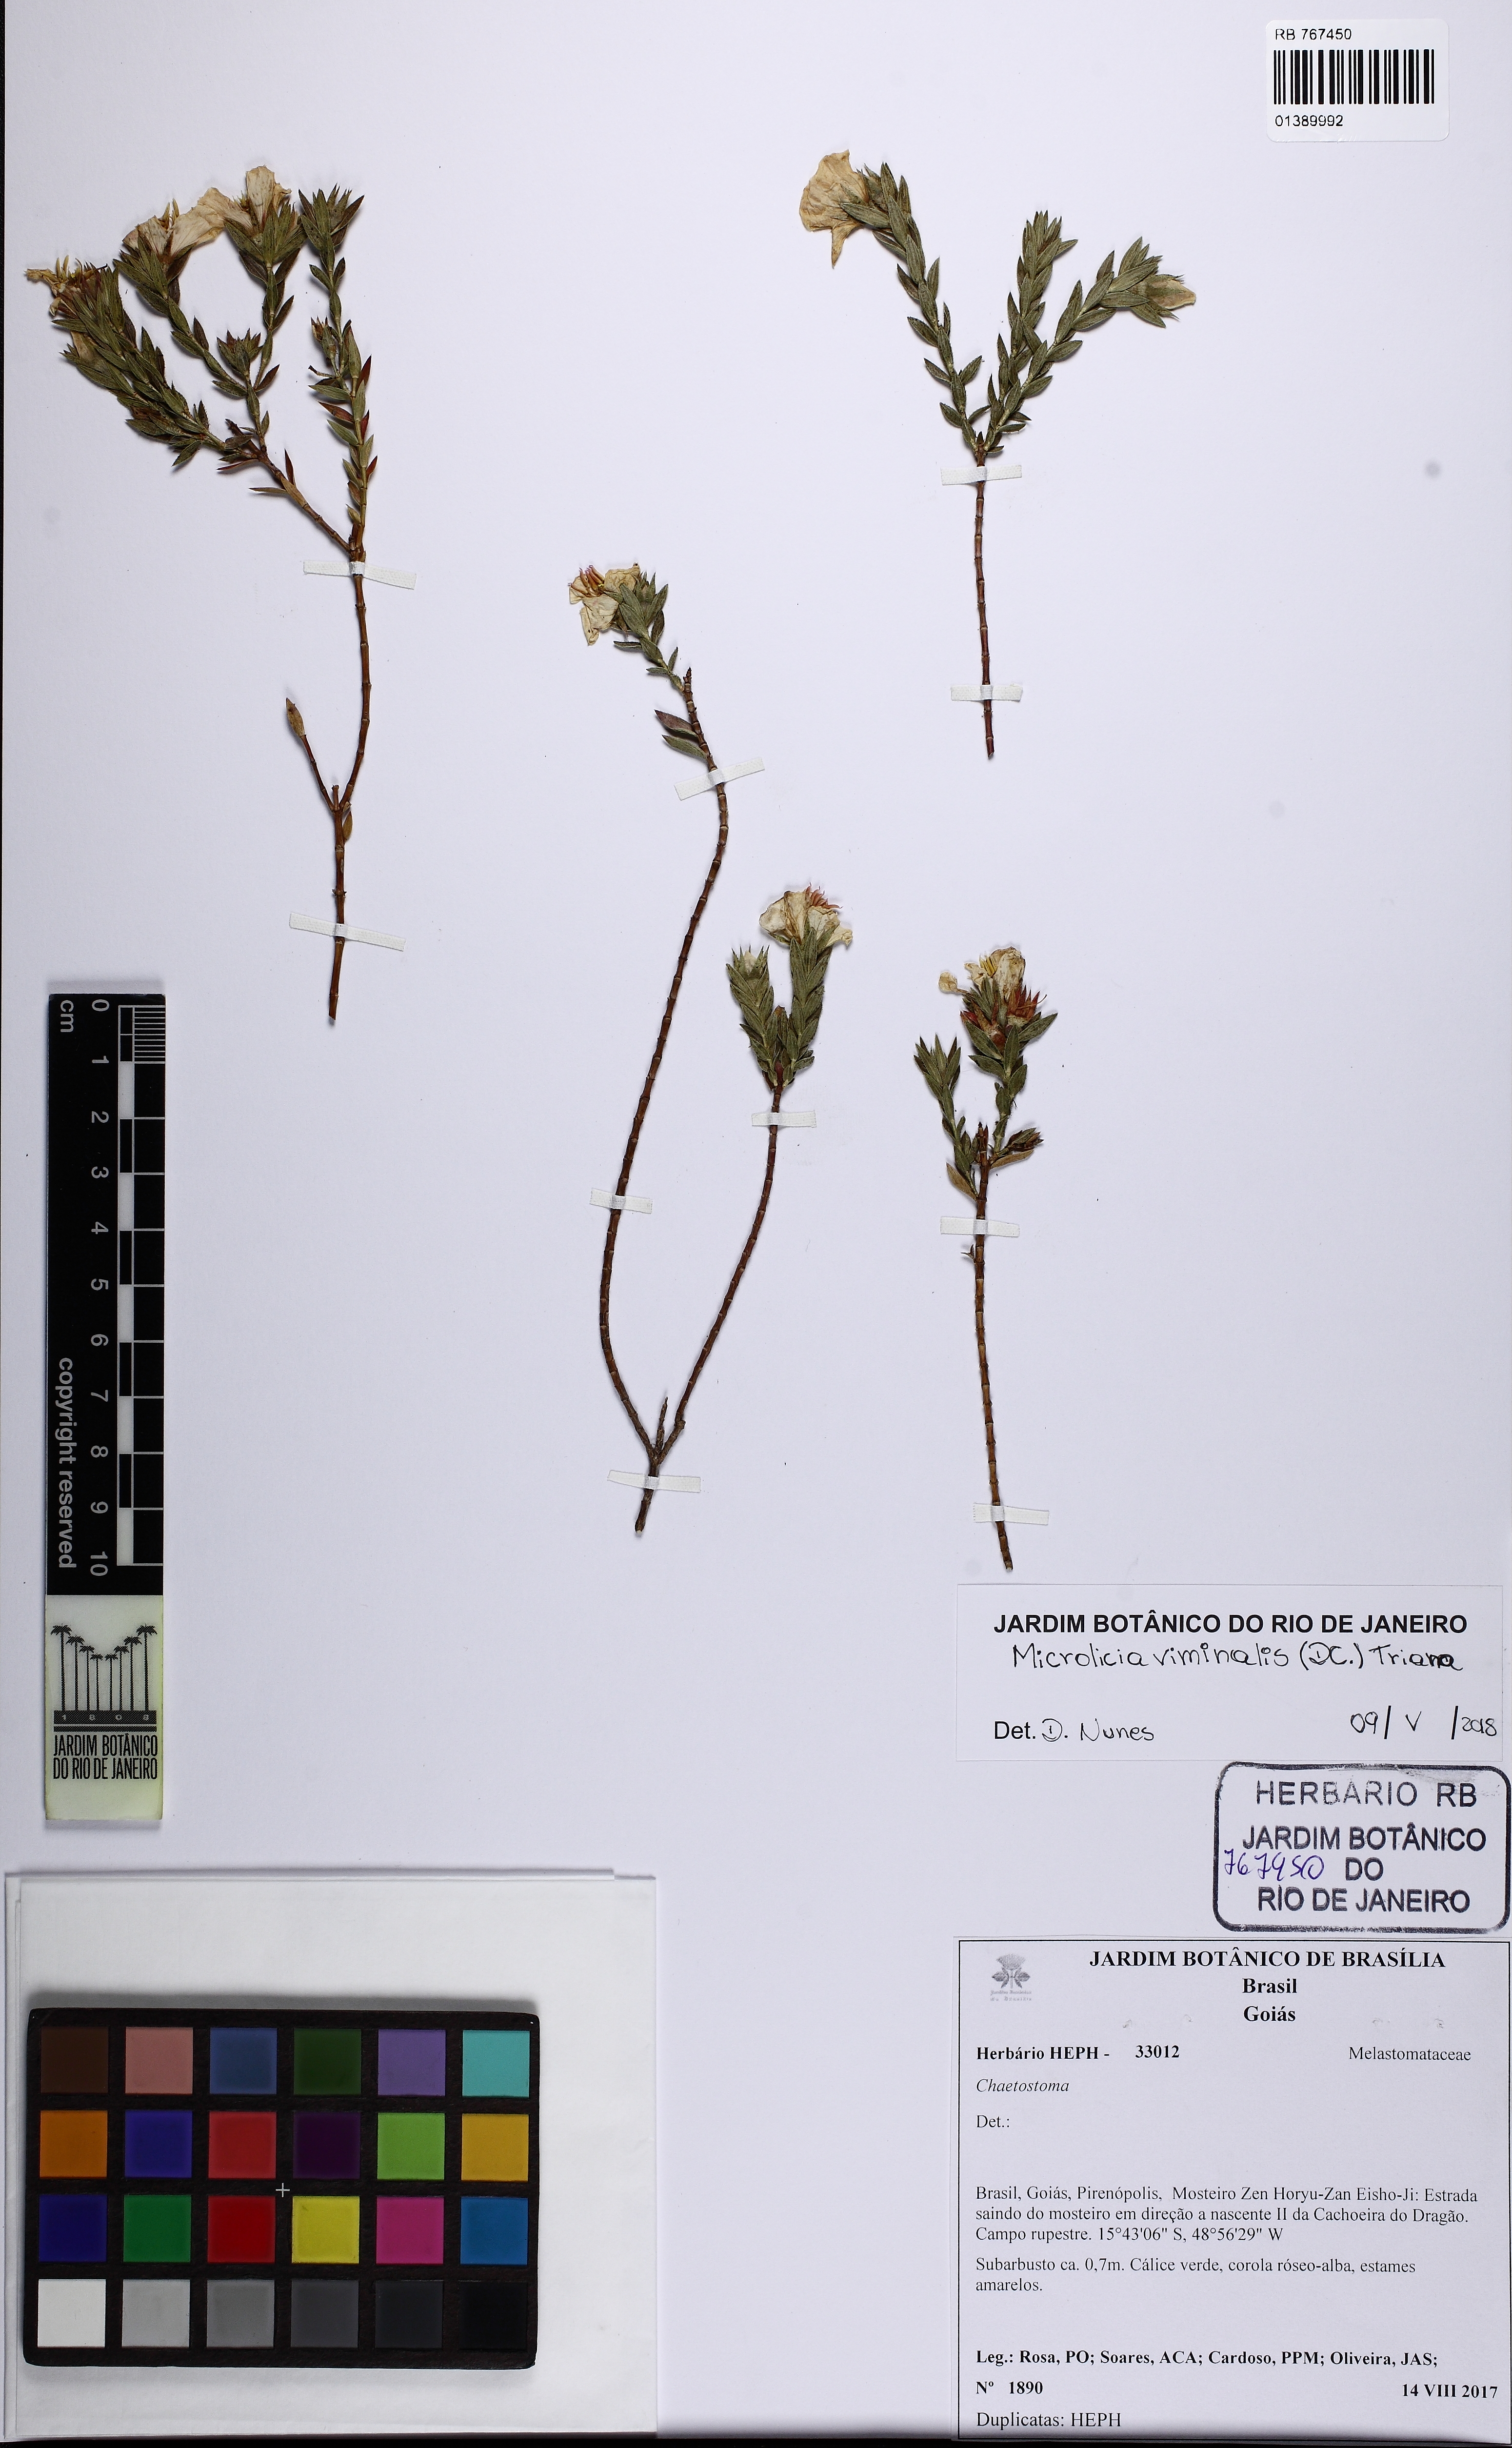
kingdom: Plantae
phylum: Tracheophyta
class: Magnoliopsida
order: Myrtales
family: Melastomataceae
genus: Microlicia
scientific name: Microlicia viminalis
